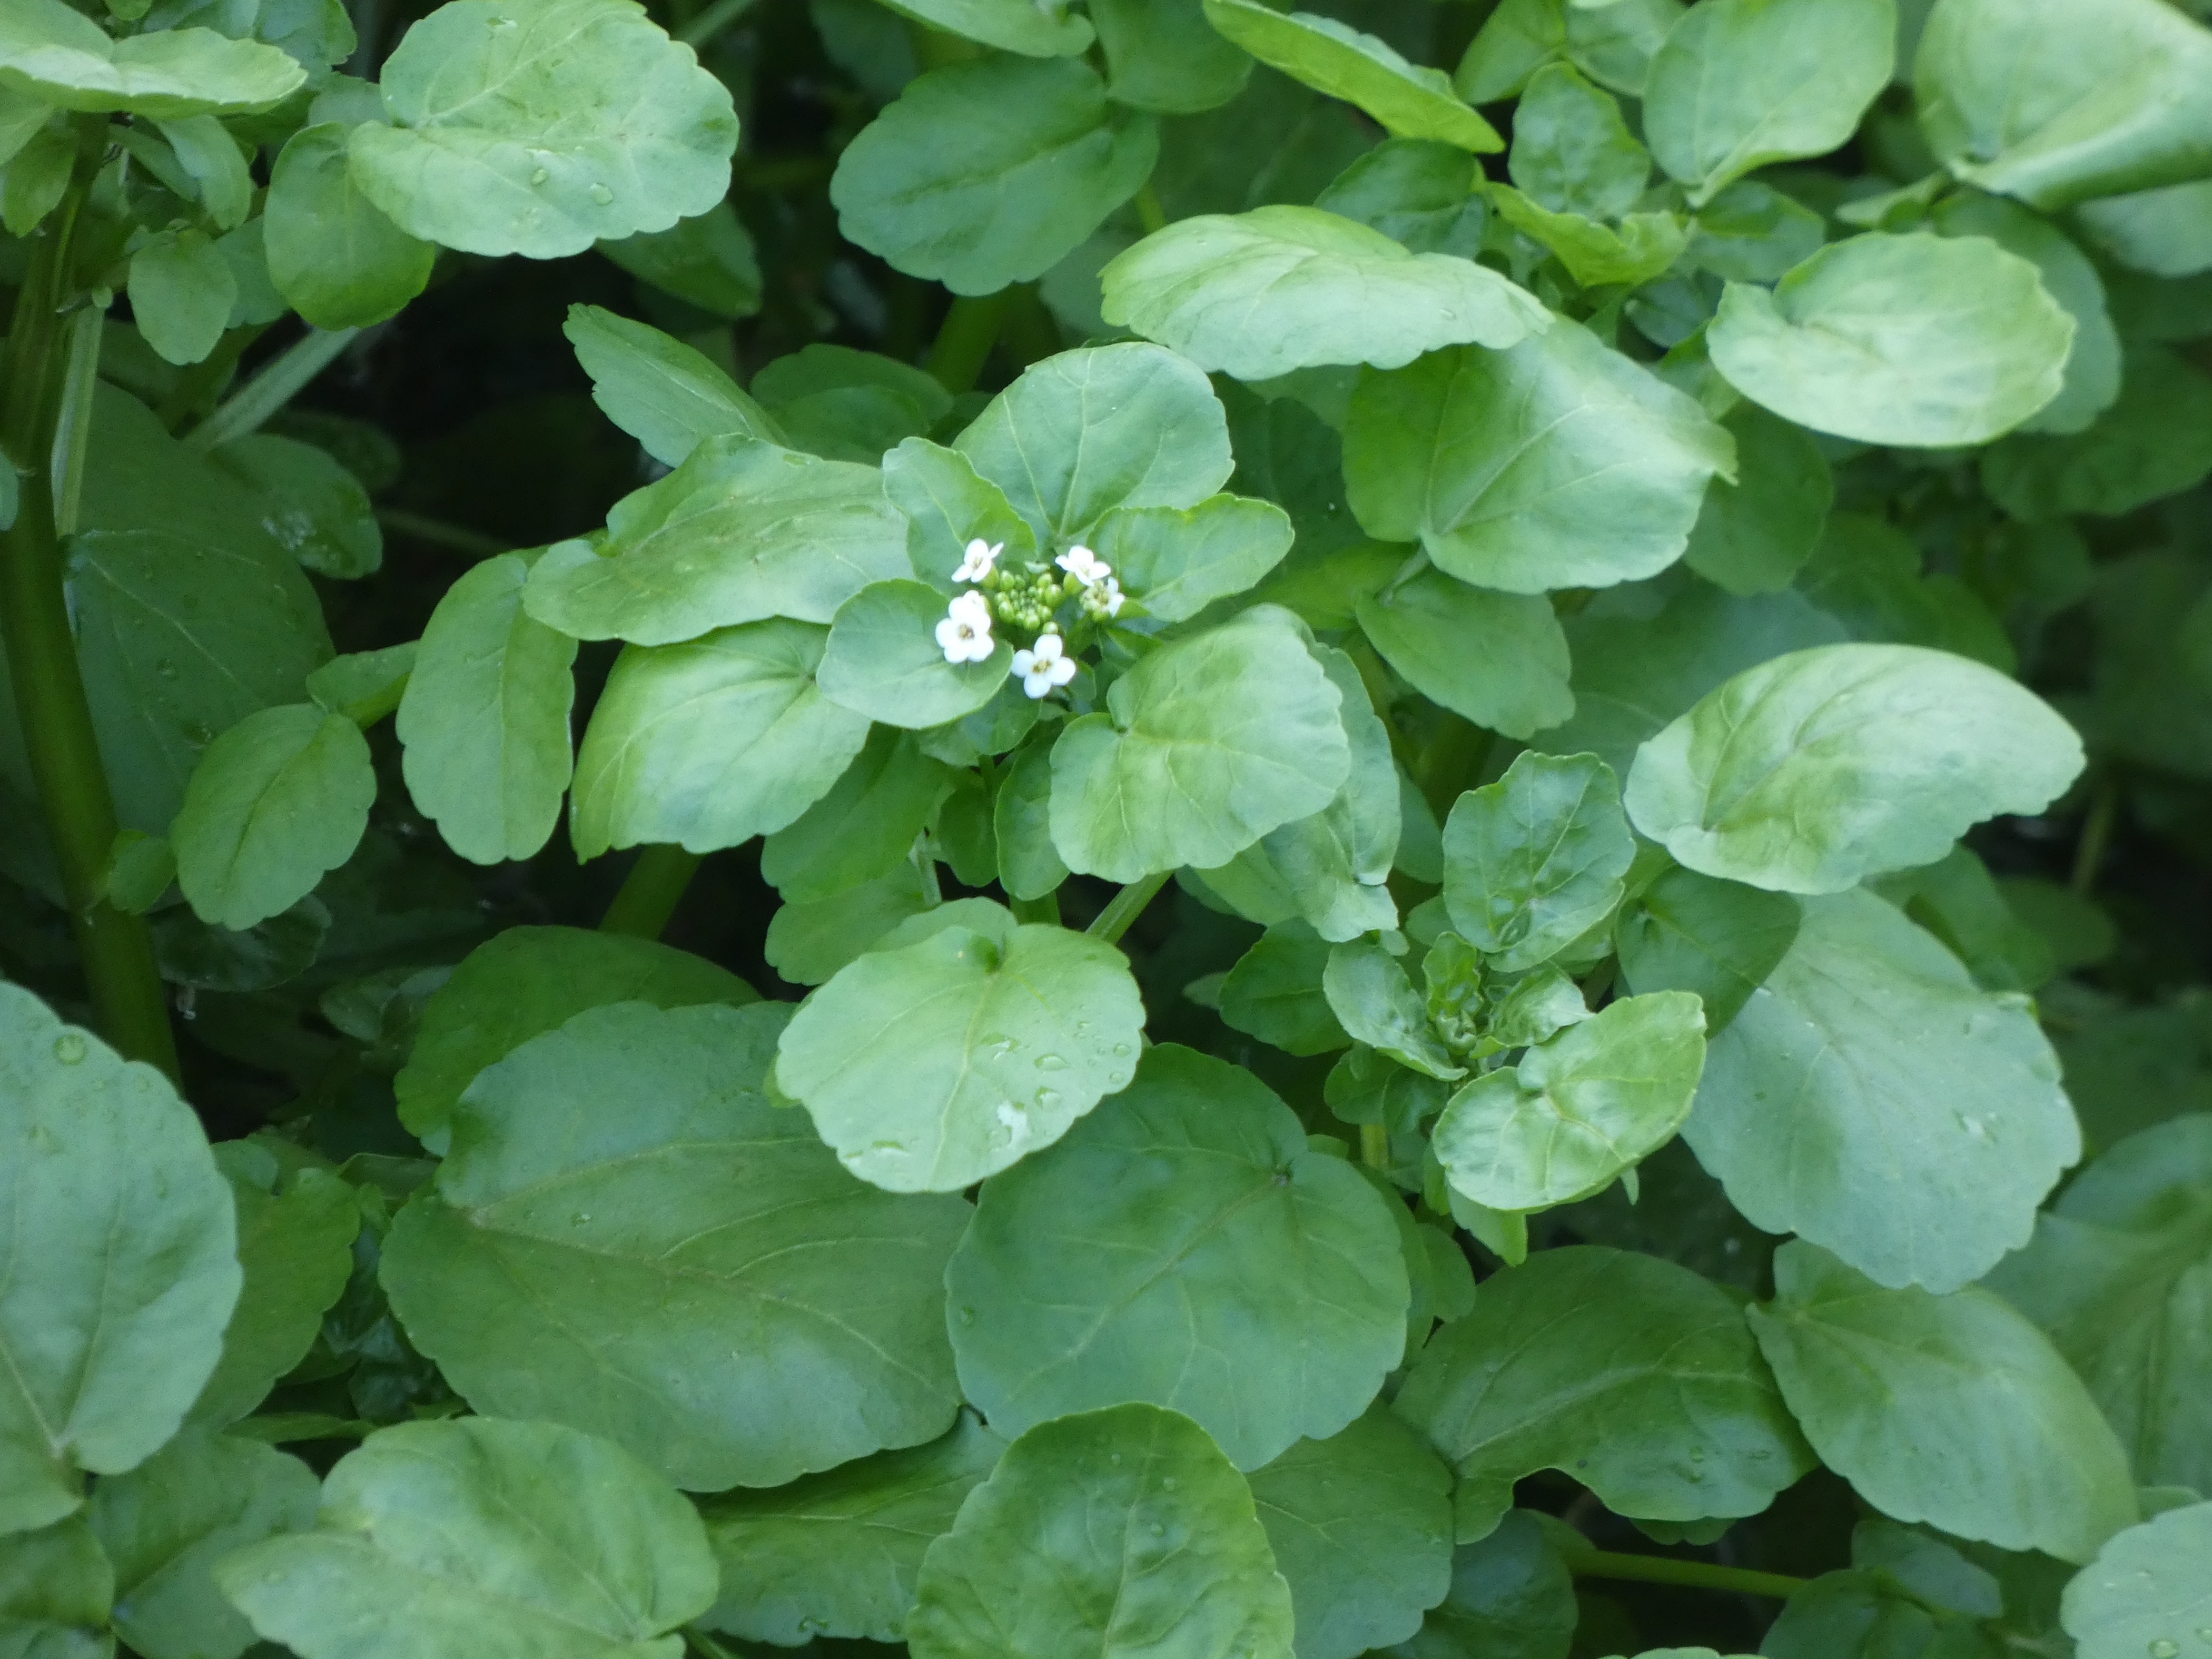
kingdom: Plantae
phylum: Tracheophyta
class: Magnoliopsida
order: Brassicales
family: Brassicaceae
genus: Nasturtium
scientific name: Nasturtium officinale
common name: Tykskulpet brøndkarse
